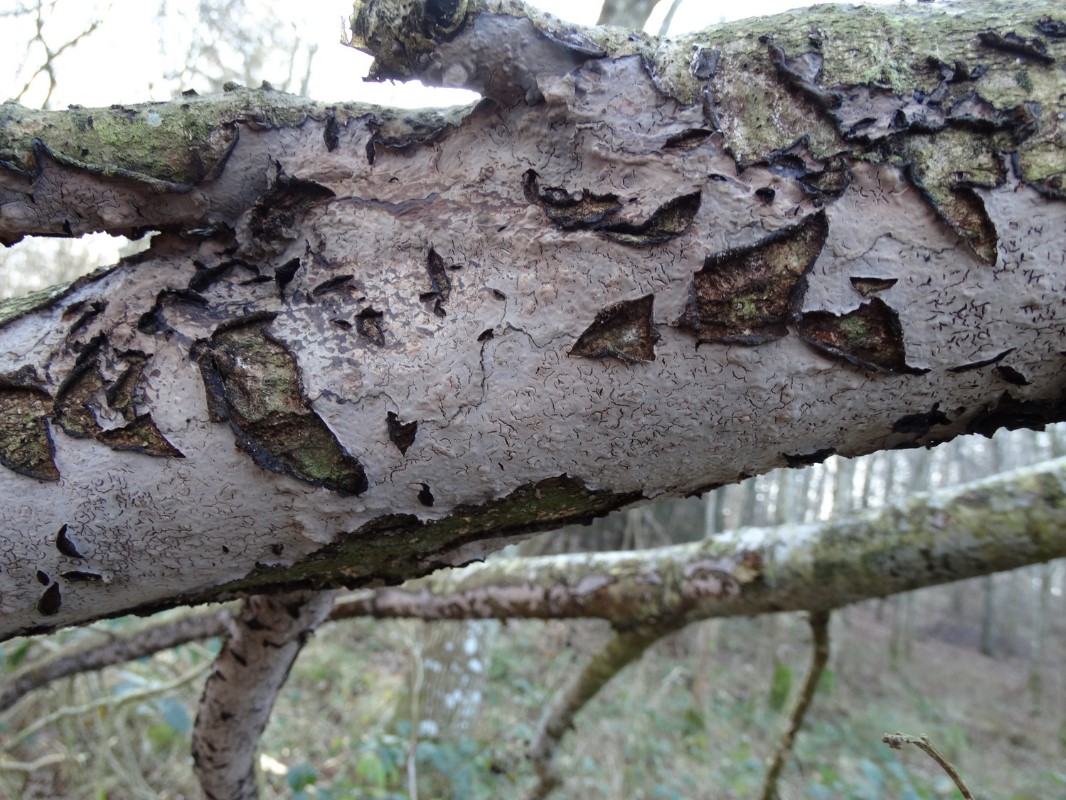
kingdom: Fungi
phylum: Basidiomycota
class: Agaricomycetes
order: Russulales
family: Peniophoraceae
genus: Peniophora
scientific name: Peniophora quercina
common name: ege-voksskind
